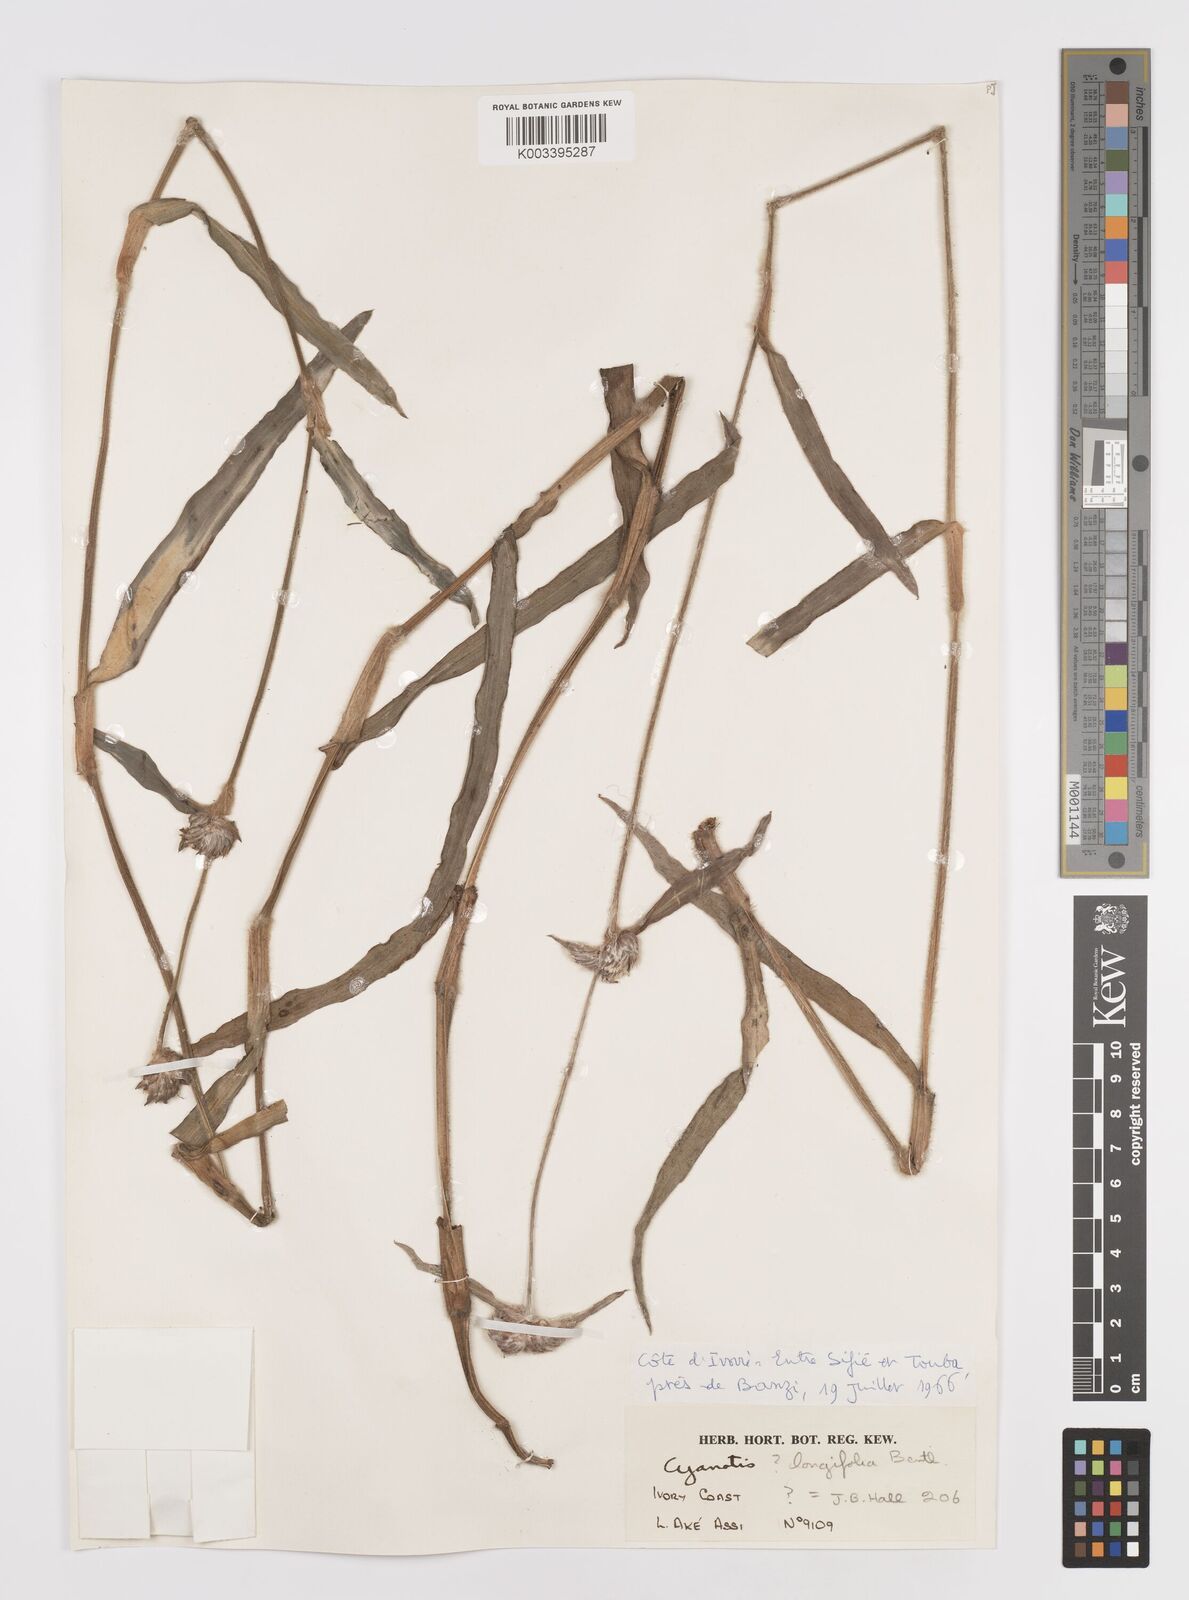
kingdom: Plantae
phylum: Tracheophyta
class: Liliopsida
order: Commelinales
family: Commelinaceae
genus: Cyanotis
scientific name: Cyanotis longifolia
